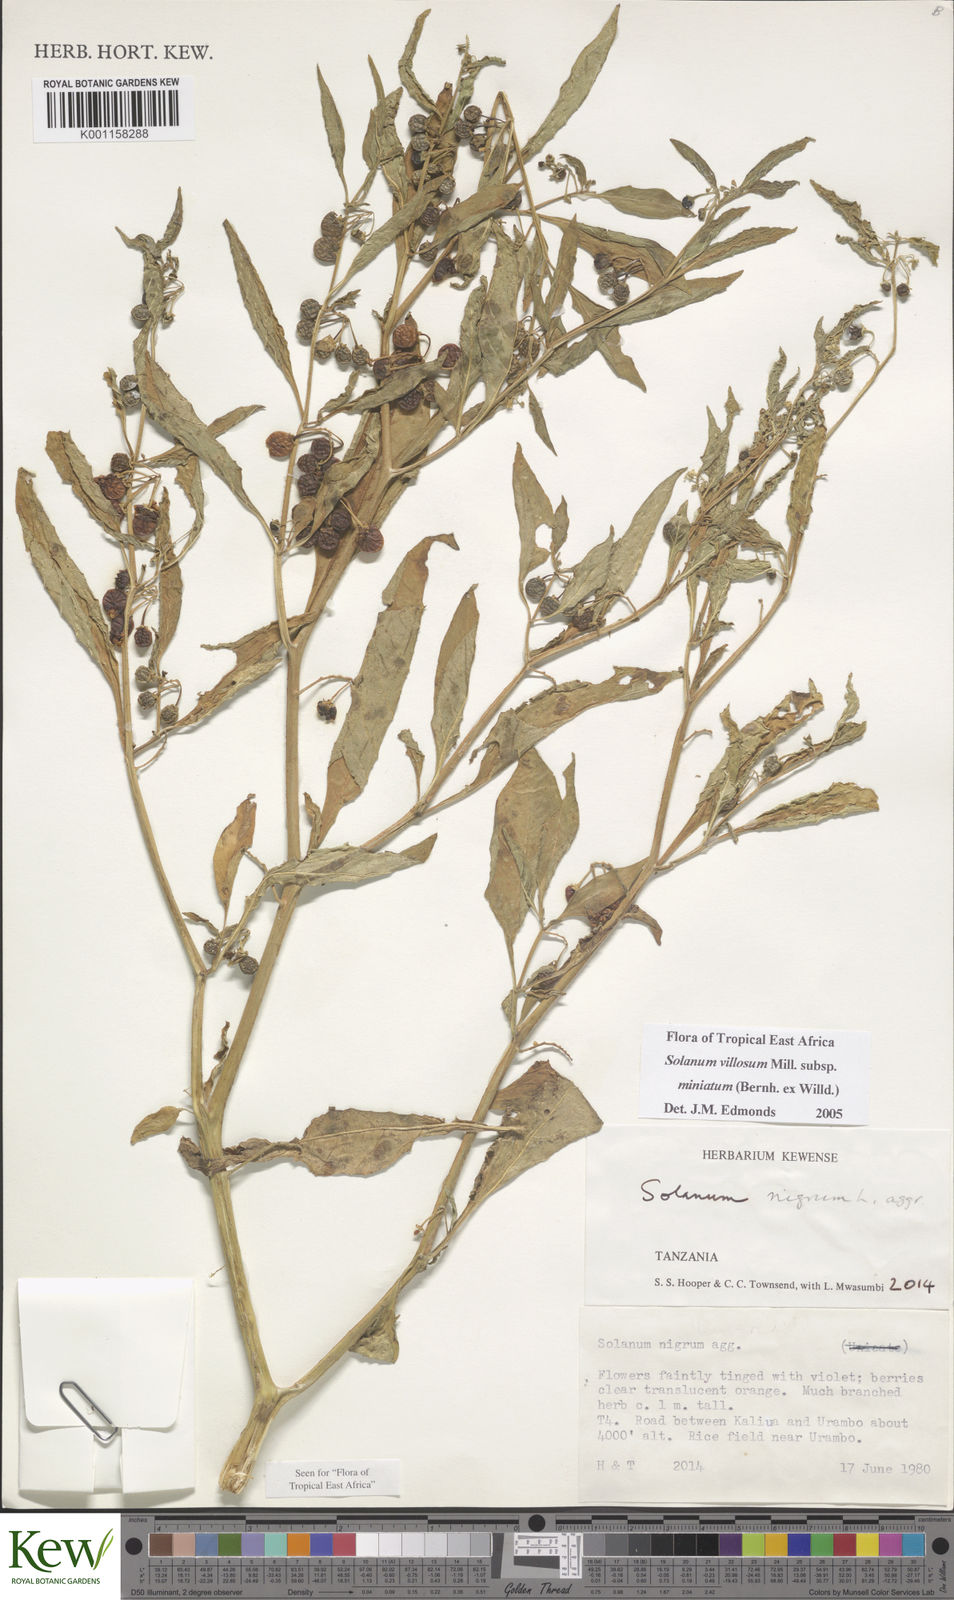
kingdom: Plantae
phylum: Tracheophyta
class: Magnoliopsida
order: Solanales
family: Solanaceae
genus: Solanum
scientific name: Solanum villosum
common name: Red nightshade
